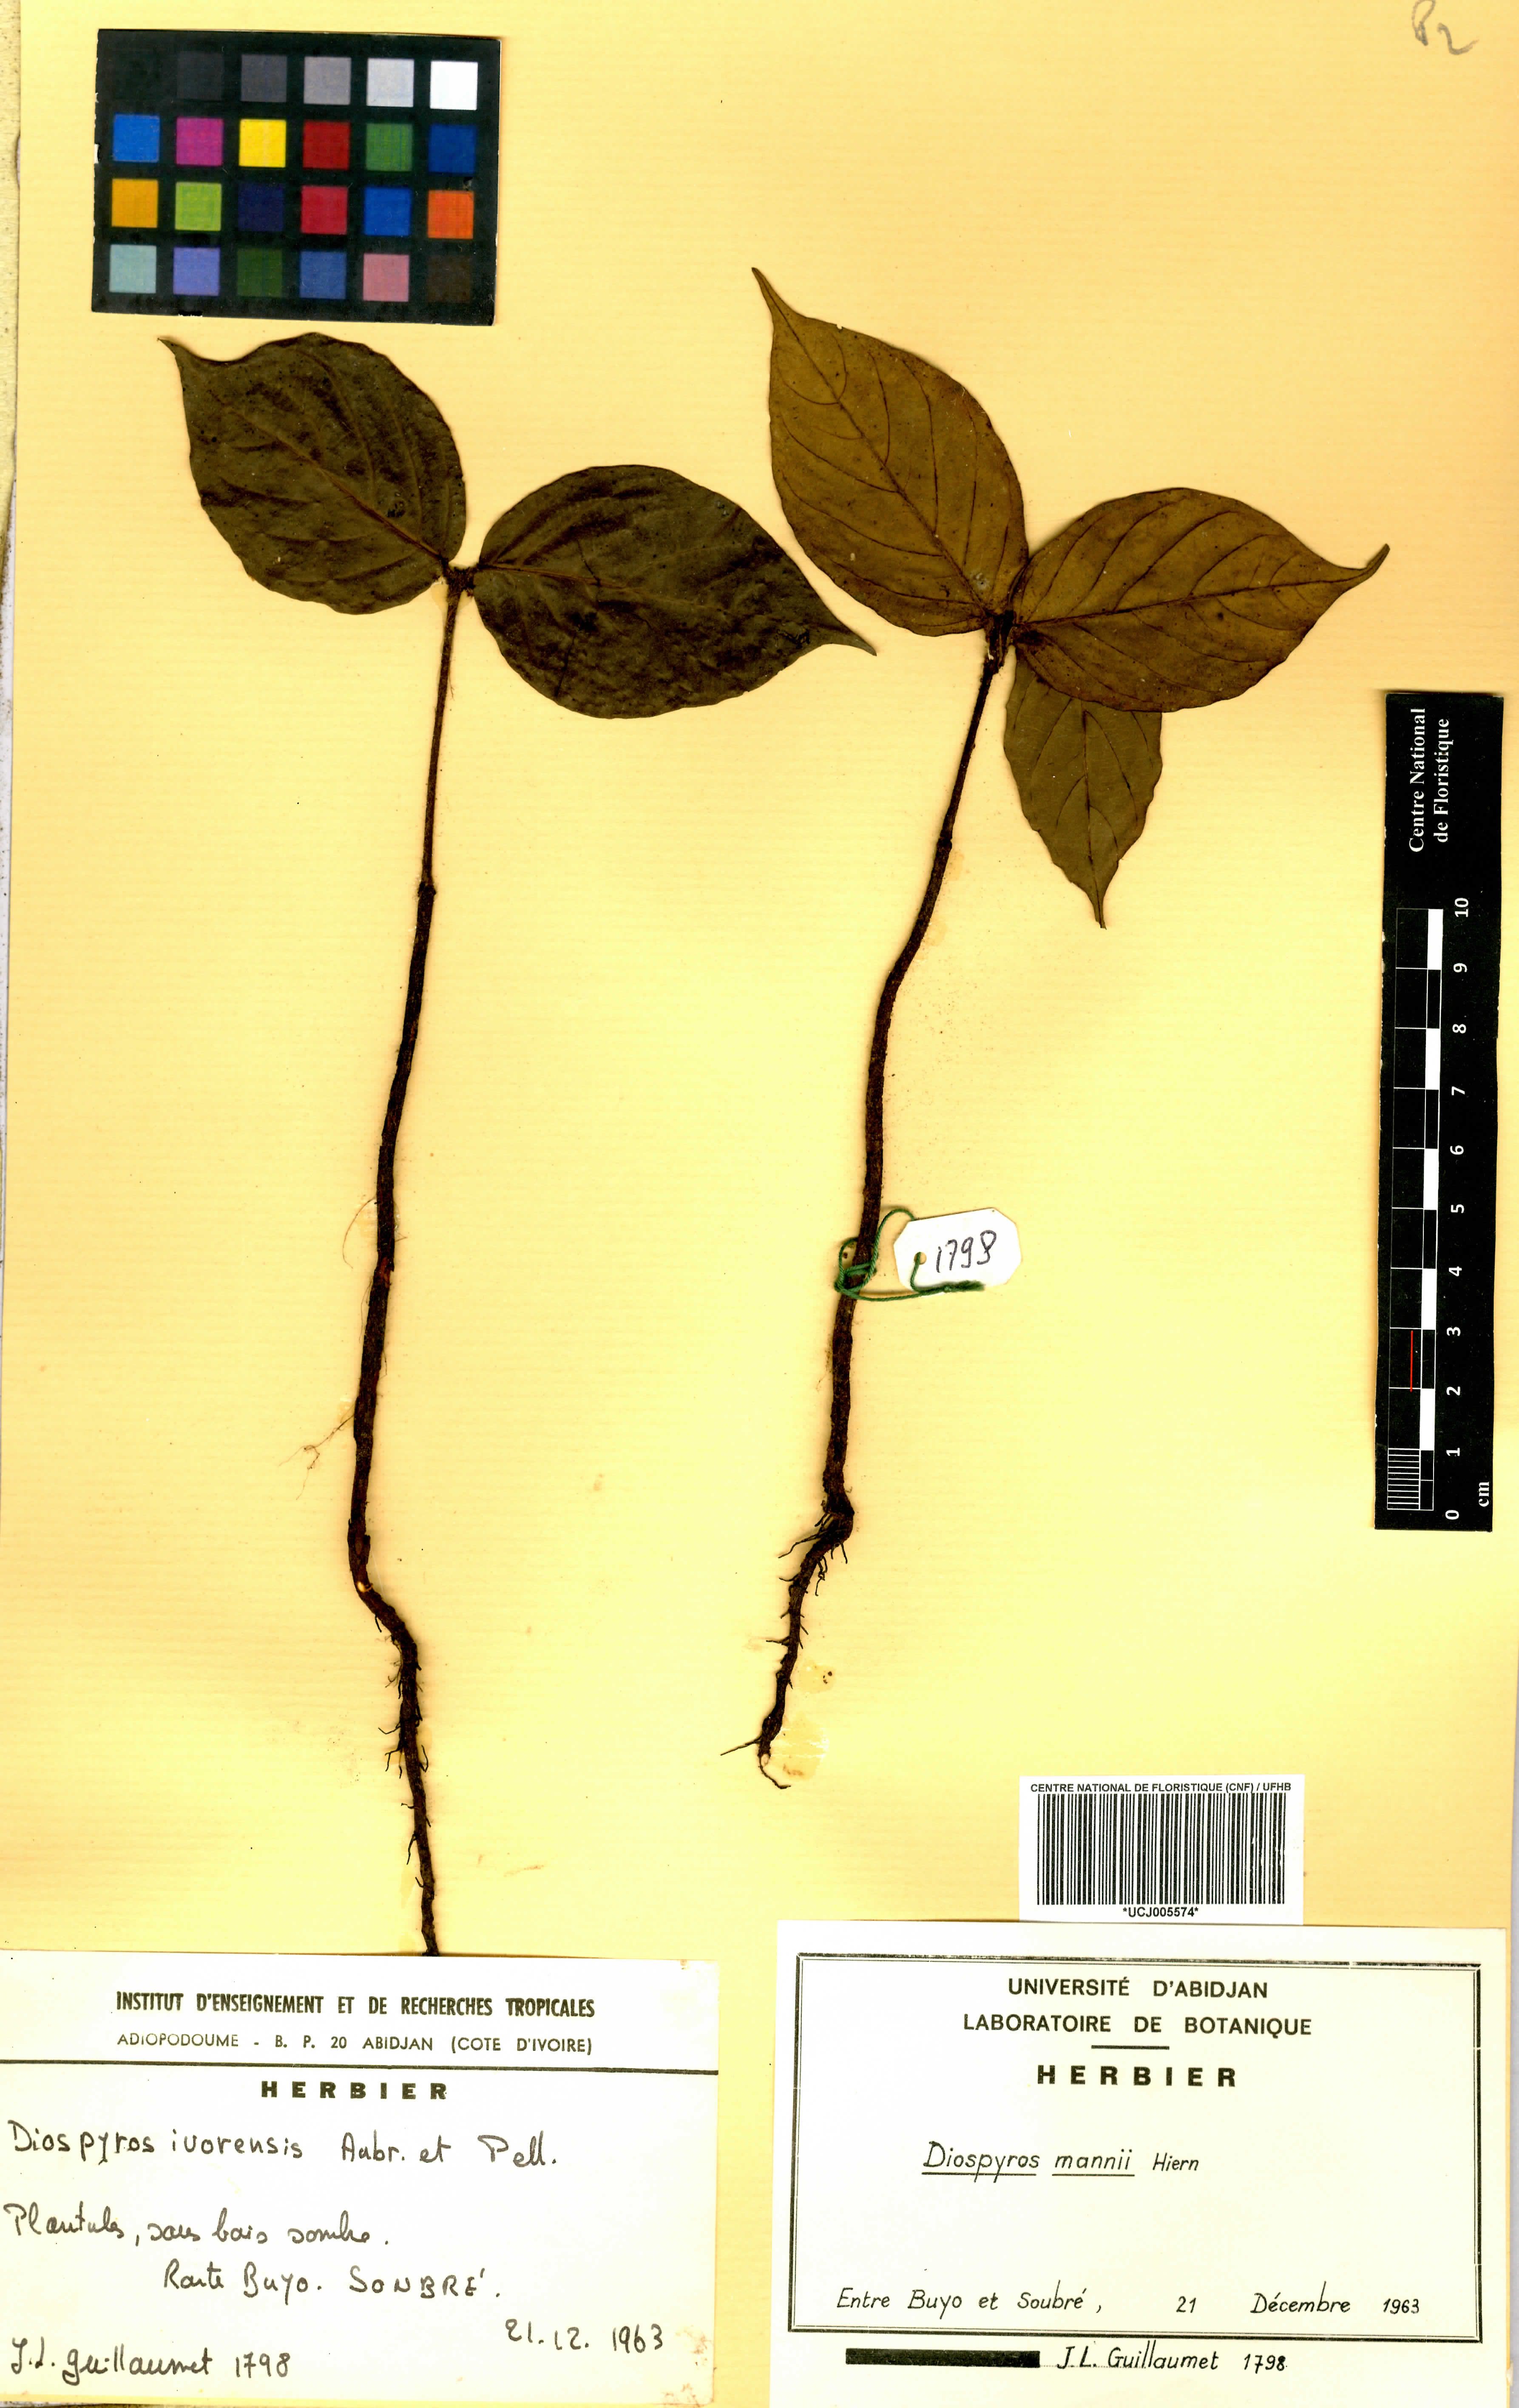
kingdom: Plantae
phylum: Tracheophyta
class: Magnoliopsida
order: Ericales
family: Ebenaceae
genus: Diospyros
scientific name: Diospyros mannii
